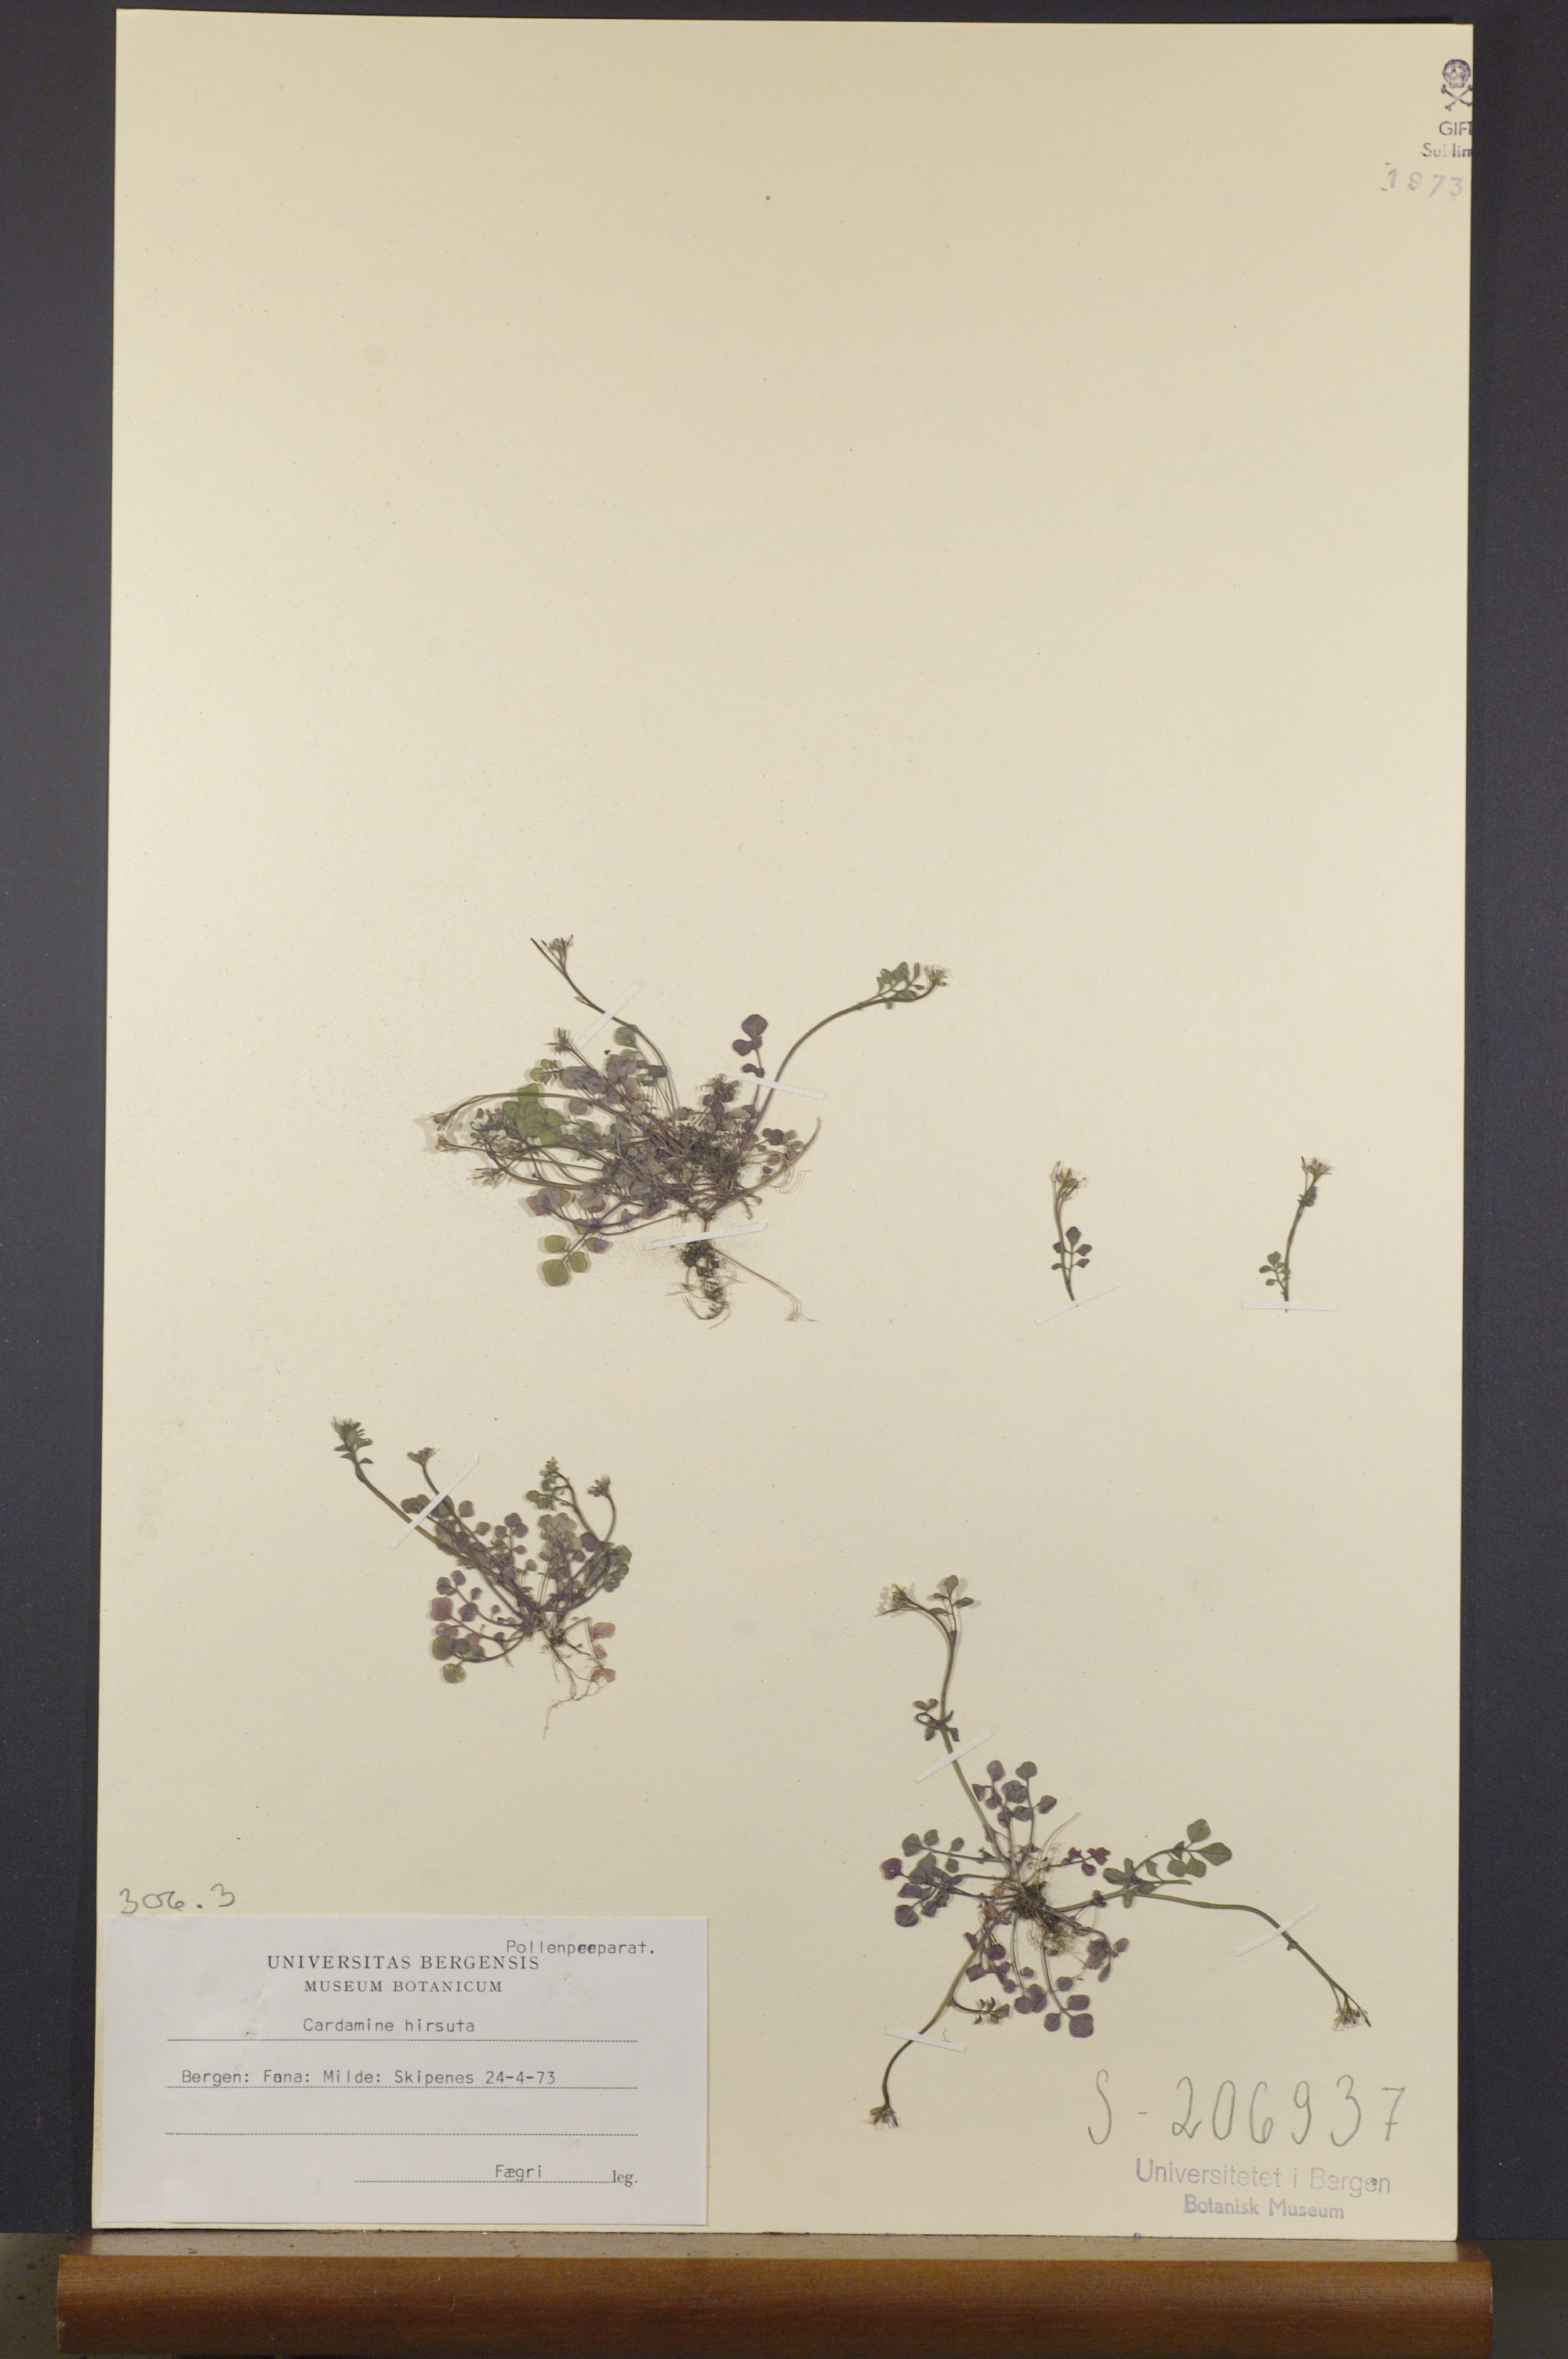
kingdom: Plantae
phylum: Tracheophyta
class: Magnoliopsida
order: Brassicales
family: Brassicaceae
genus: Cardamine
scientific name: Cardamine hirsuta
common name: Hairy bittercress
